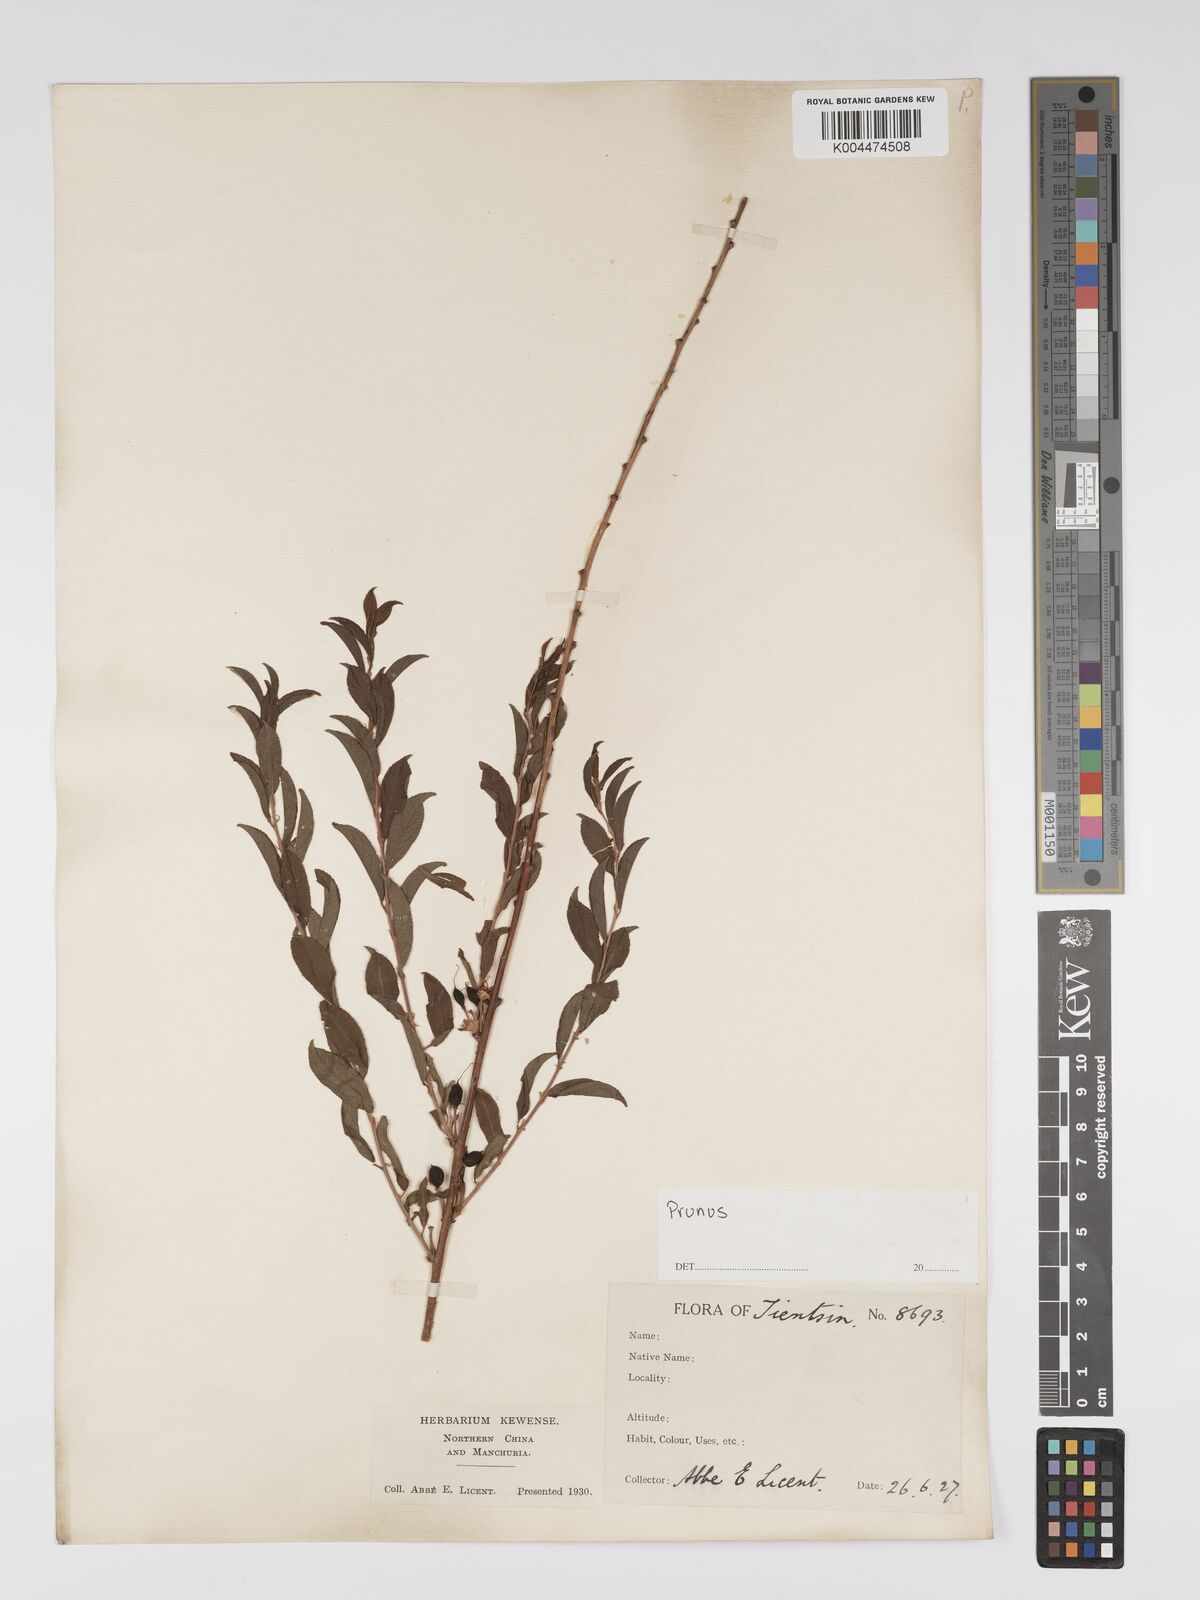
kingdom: Plantae
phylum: Tracheophyta
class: Magnoliopsida
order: Rosales
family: Rosaceae
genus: Prunus
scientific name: Prunus
